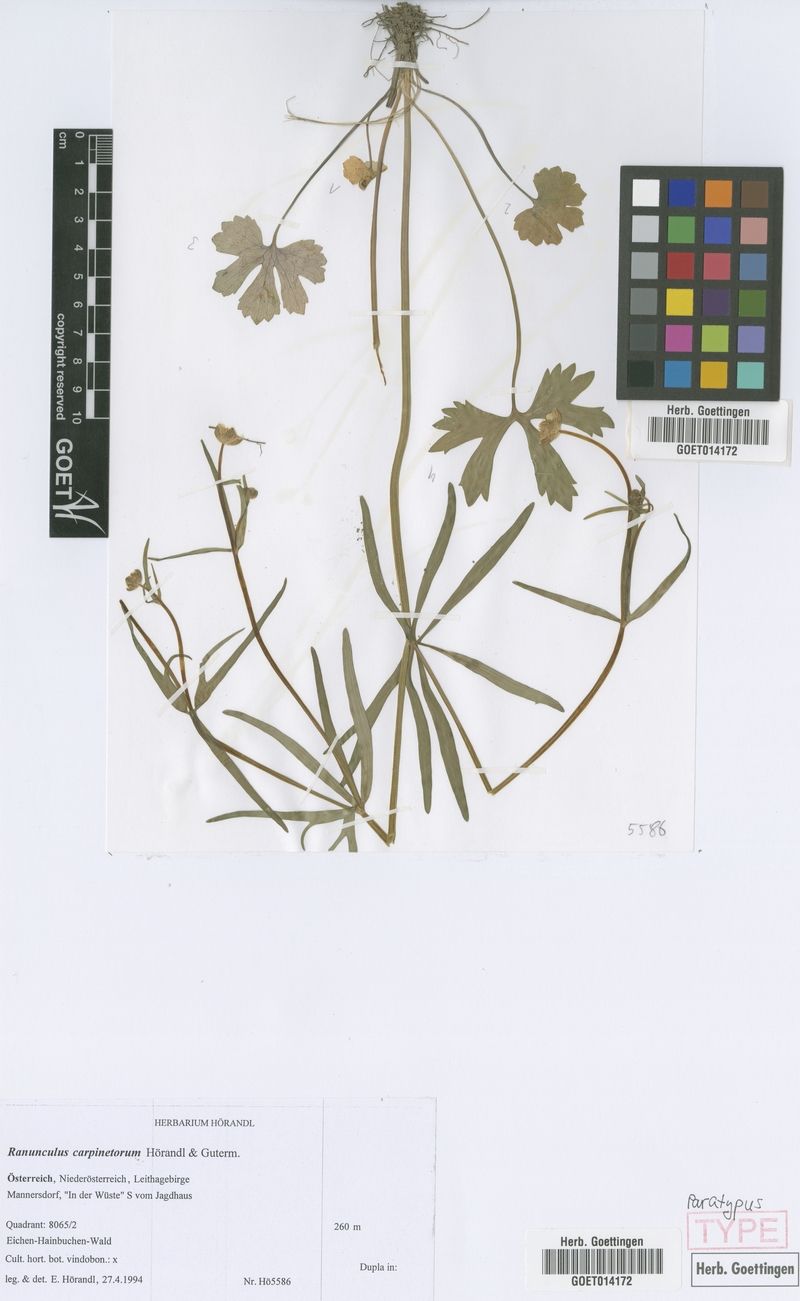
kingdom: Plantae
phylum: Tracheophyta
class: Magnoliopsida
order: Ranunculales
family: Ranunculaceae
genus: Ranunculus
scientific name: Ranunculus carpinetorum
